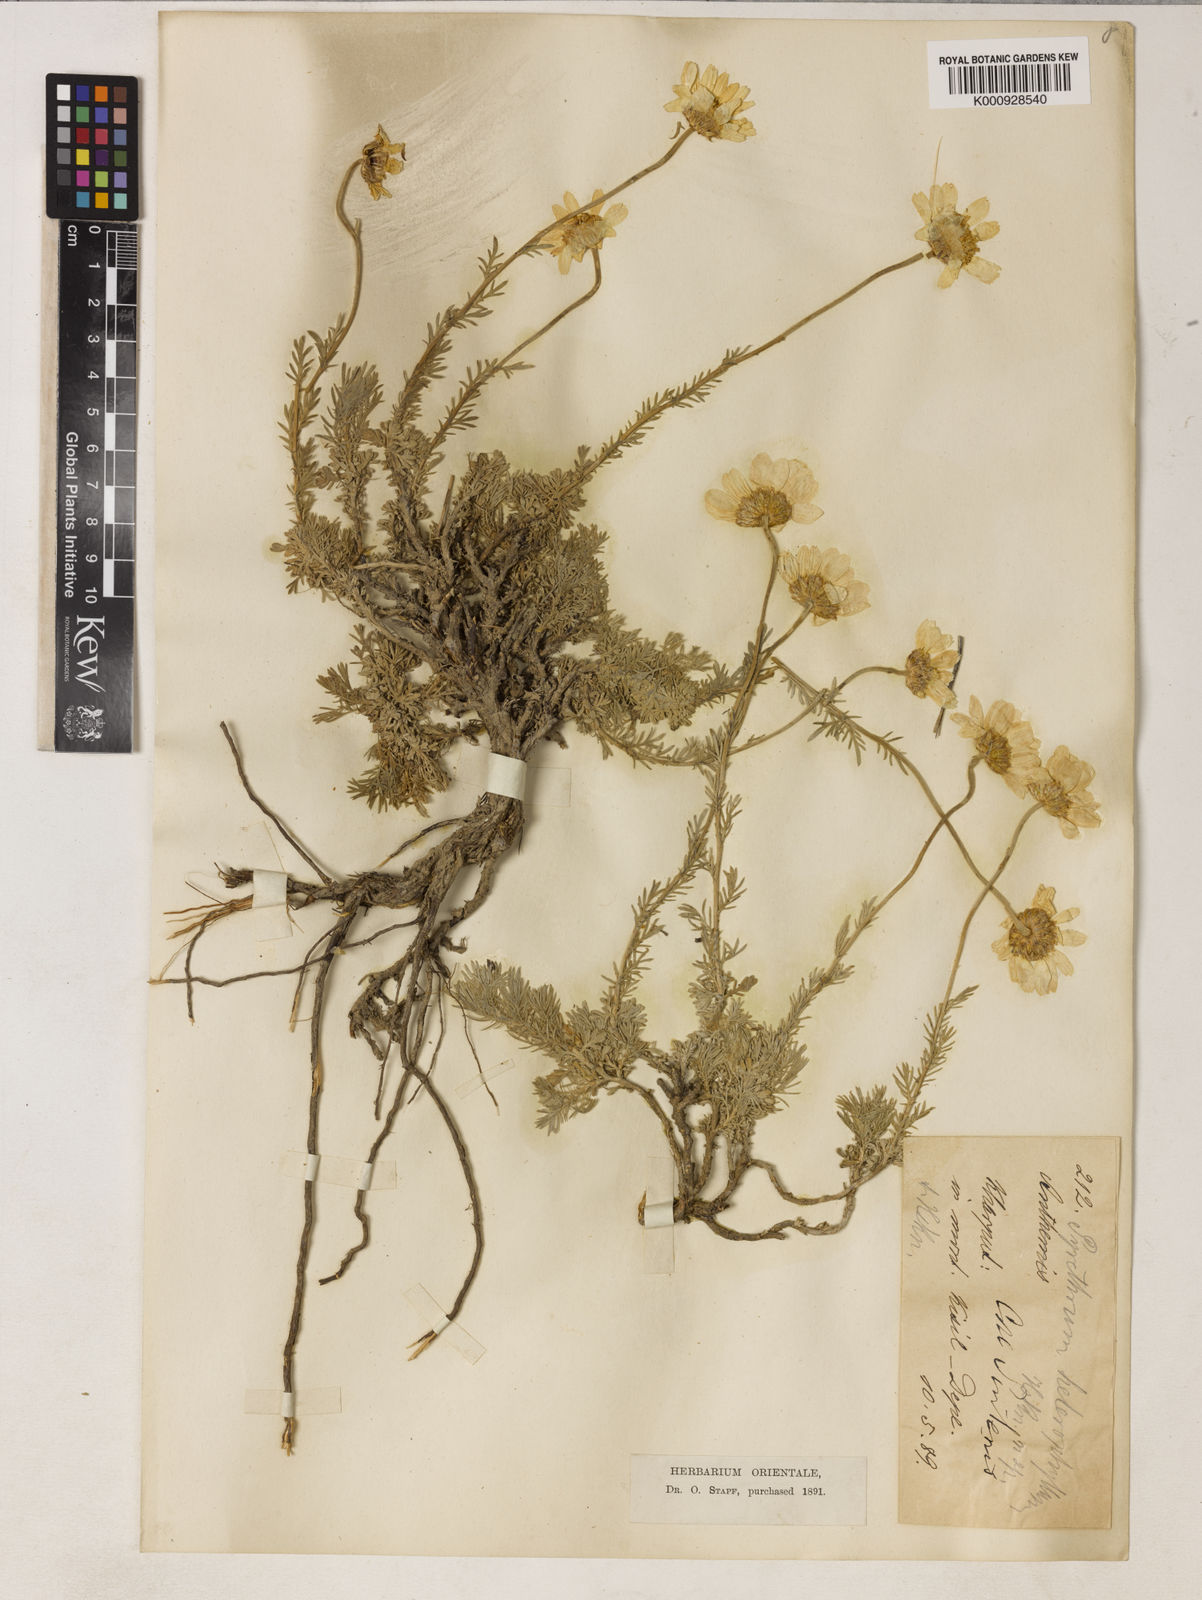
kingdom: Plantae
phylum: Tracheophyta
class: Magnoliopsida
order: Asterales
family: Asteraceae
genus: Tanacetum
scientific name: Tanacetum heterotomum
